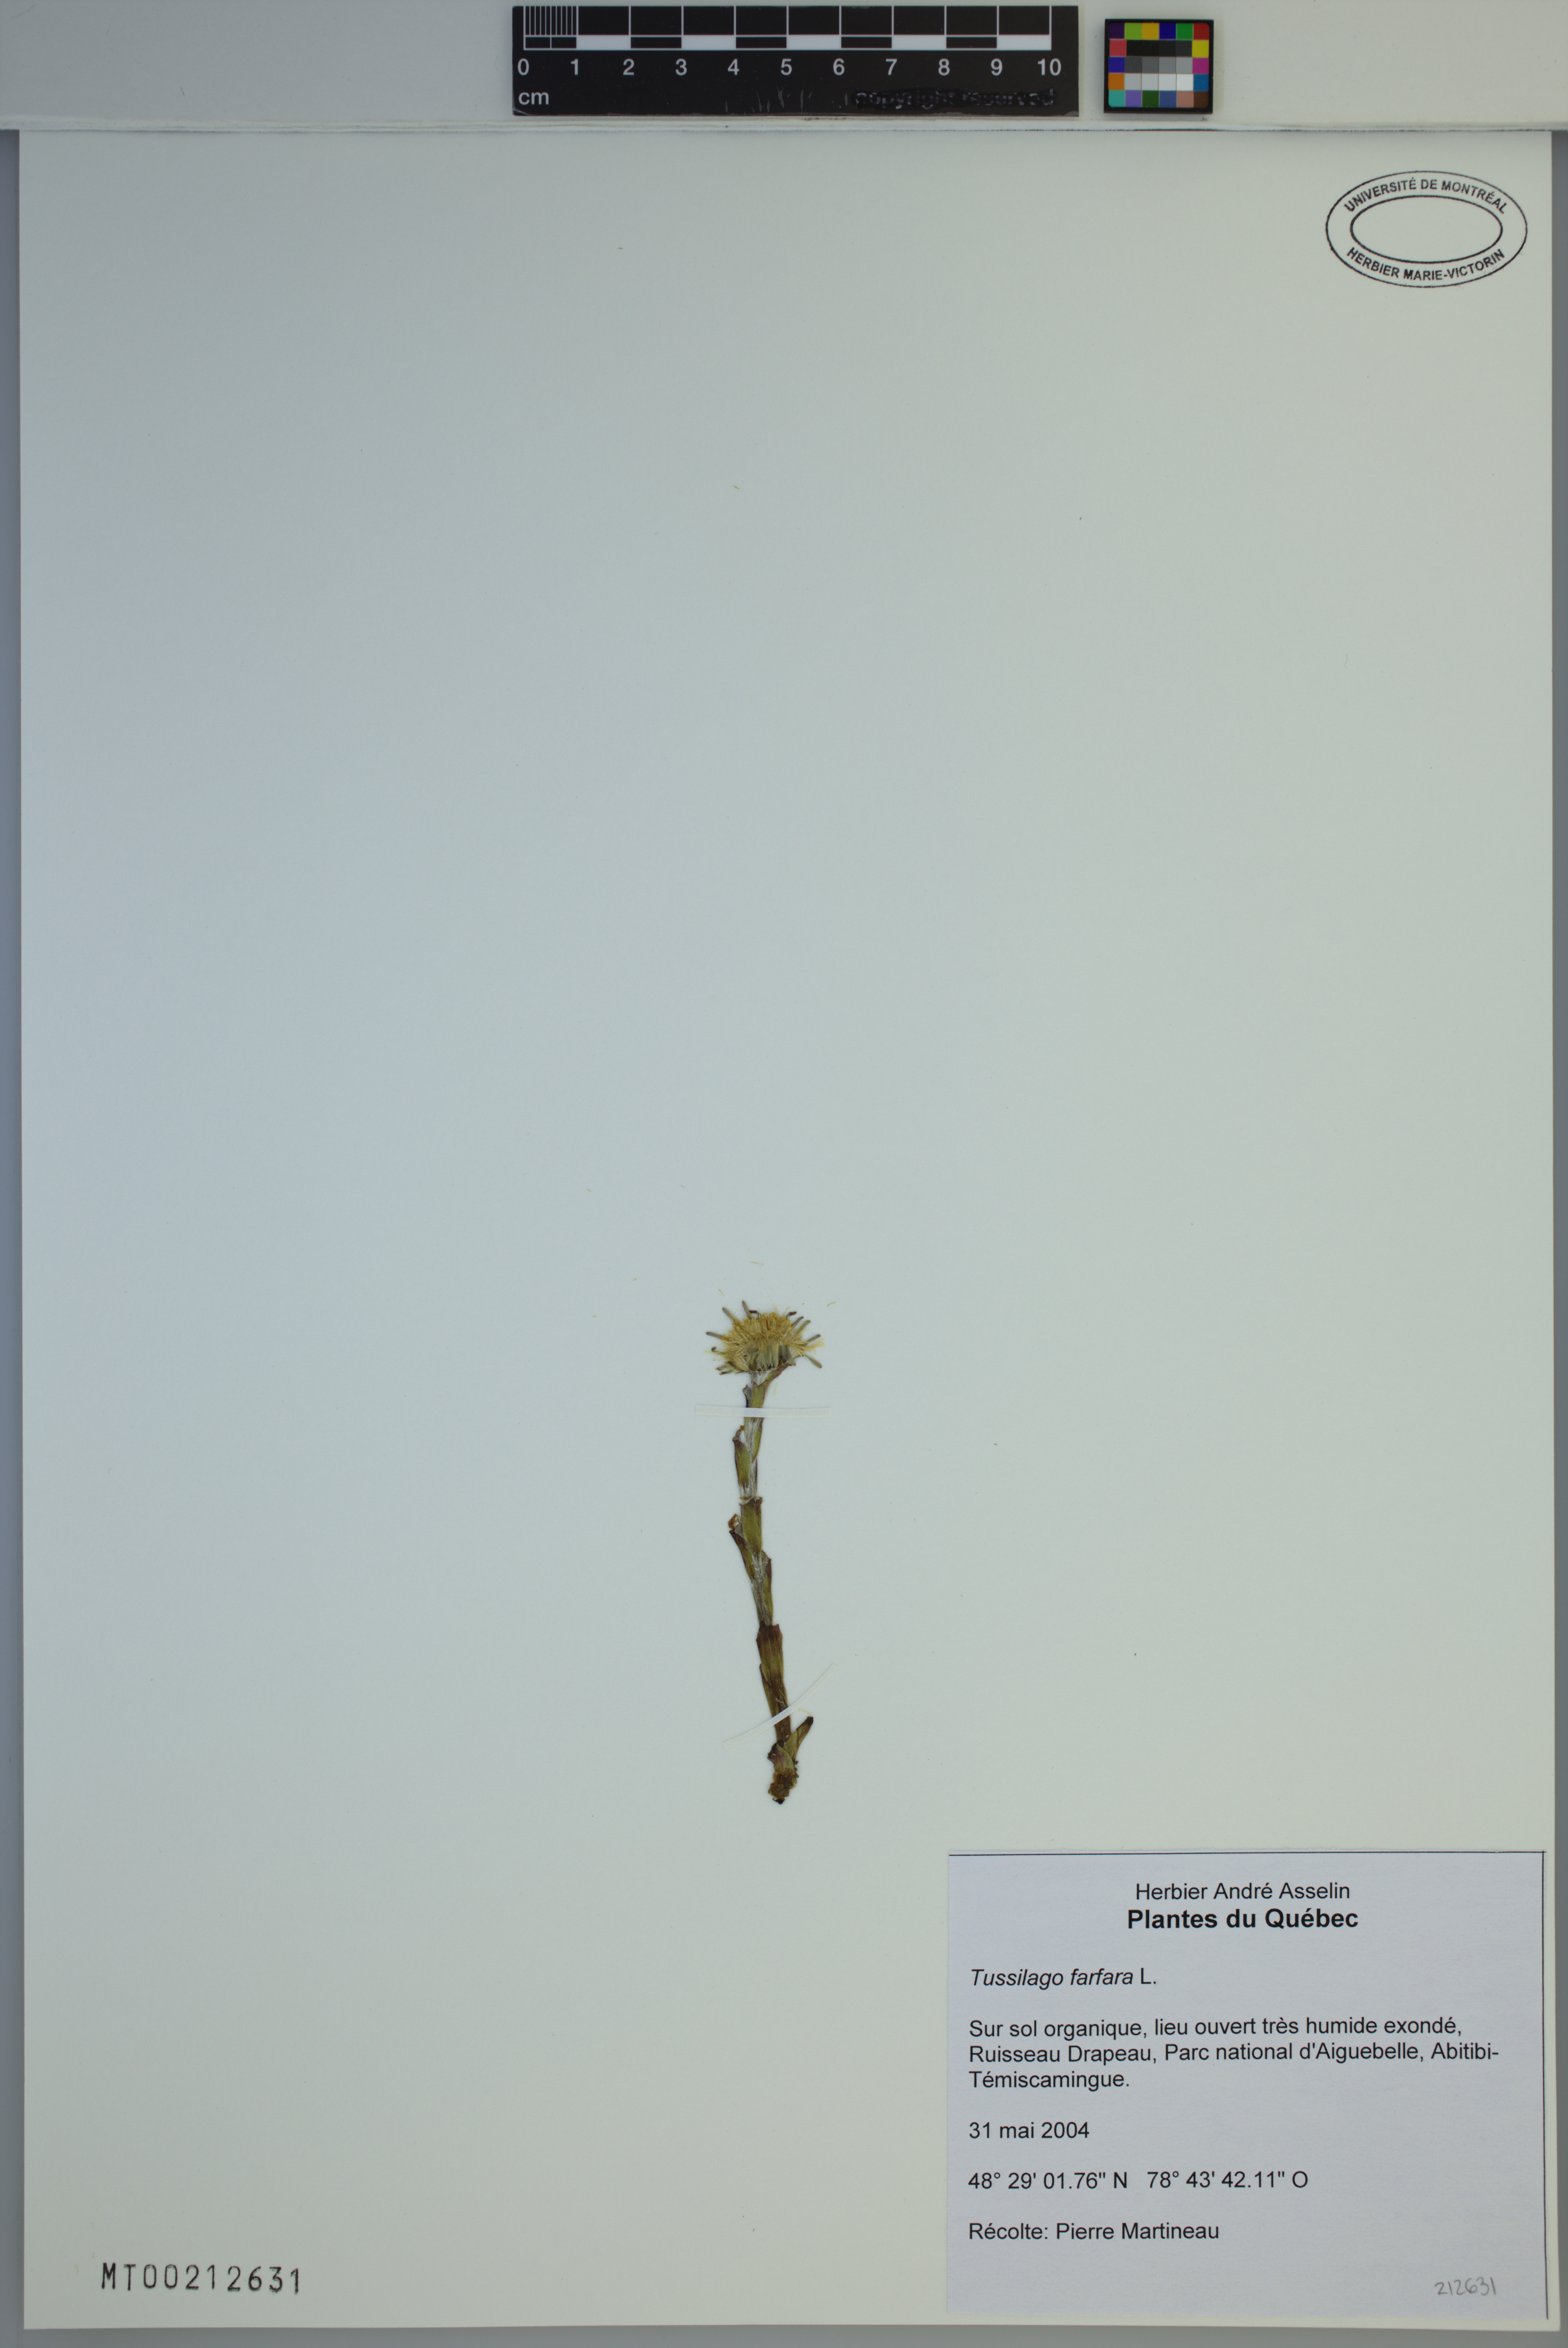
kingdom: Plantae
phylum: Tracheophyta
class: Magnoliopsida
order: Asterales
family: Asteraceae
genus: Tussilago
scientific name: Tussilago farfara
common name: Coltsfoot
